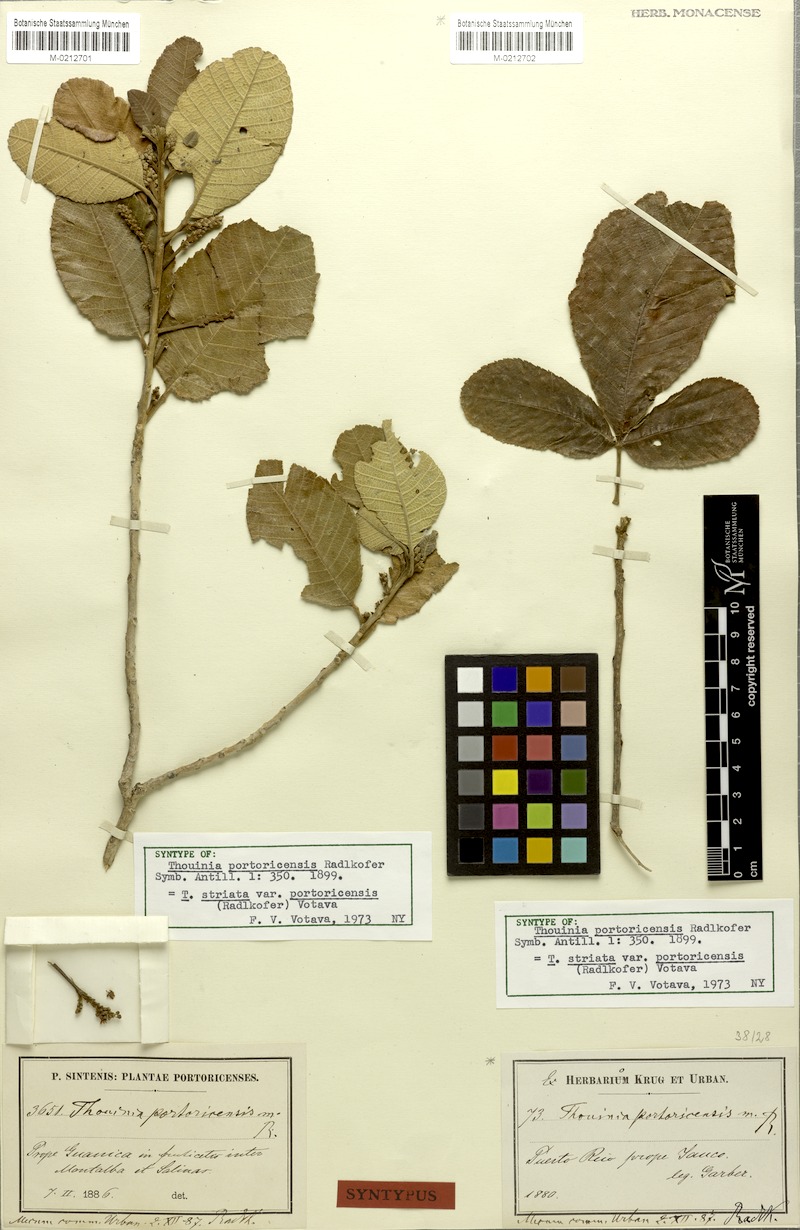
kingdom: Plantae
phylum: Tracheophyta
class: Magnoliopsida
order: Sapindales
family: Sapindaceae
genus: Thouinia
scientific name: Thouinia striata
